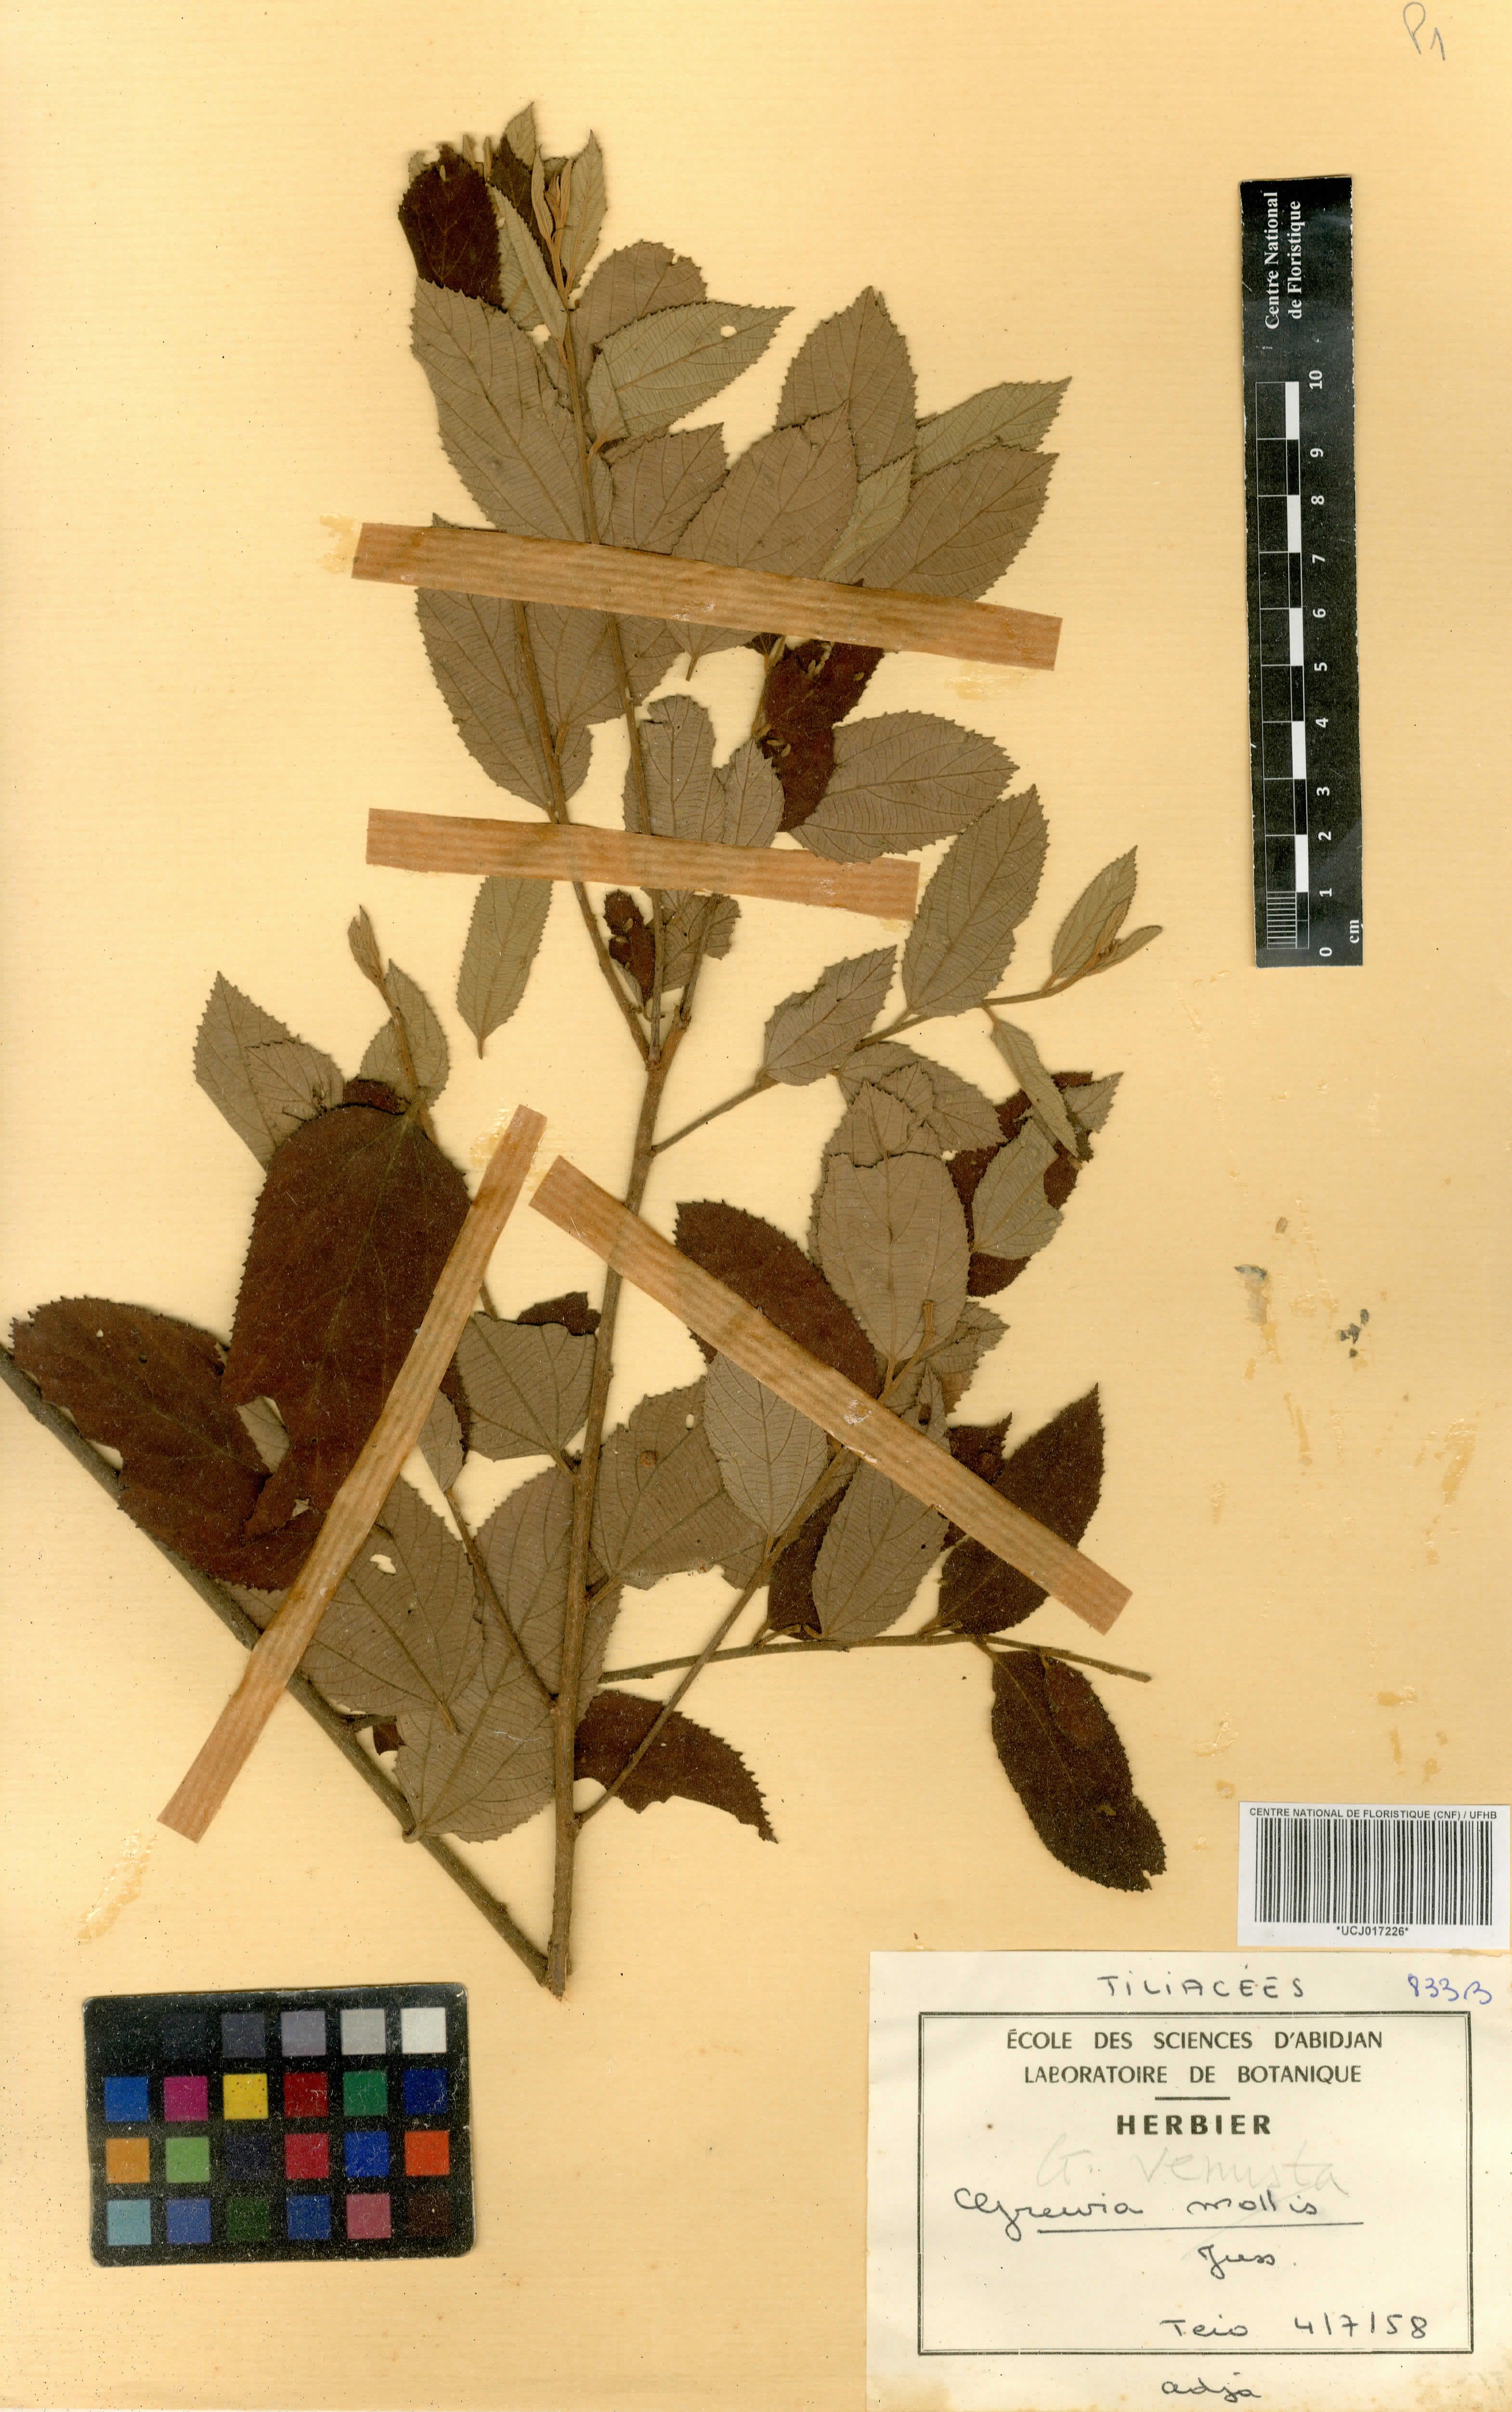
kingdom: Plantae
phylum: Tracheophyta
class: Magnoliopsida
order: Malvales
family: Malvaceae
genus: Grewia
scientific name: Grewia mollis
